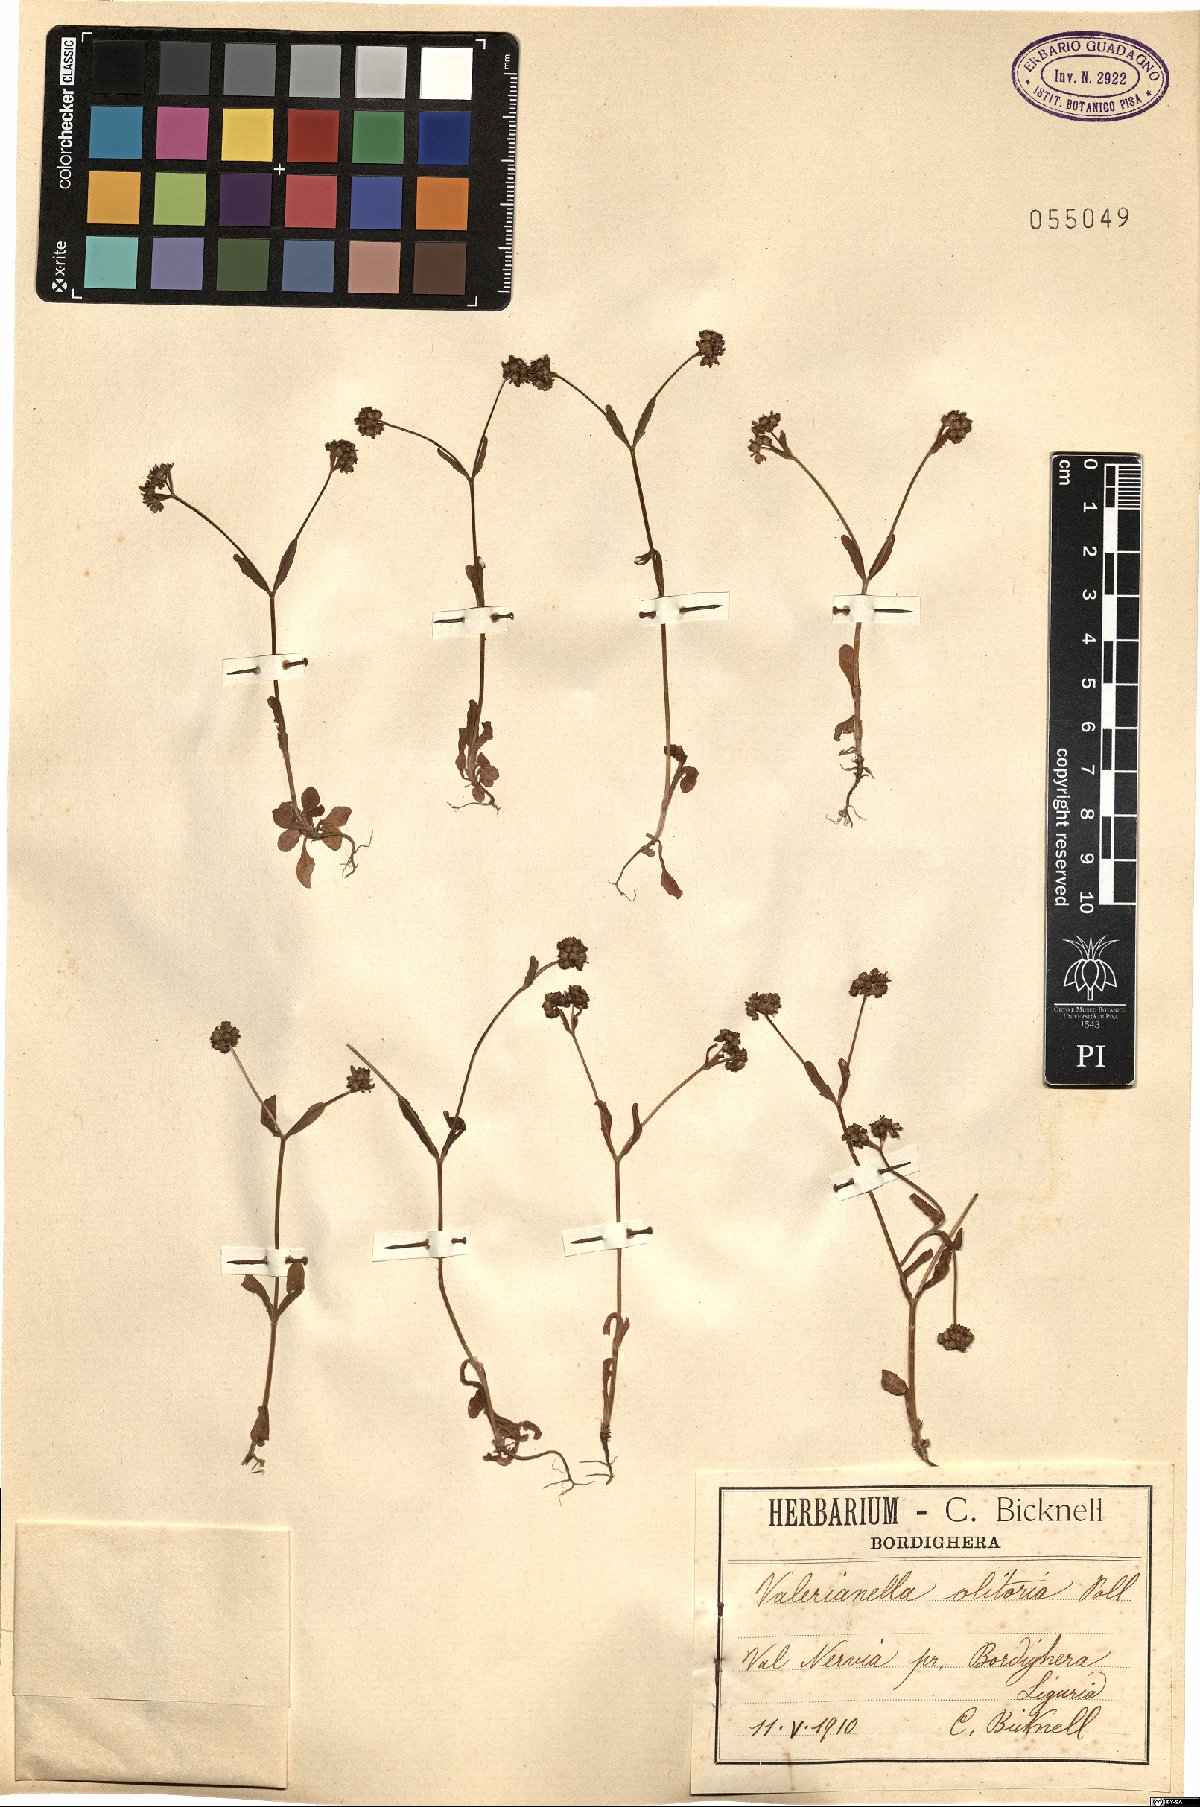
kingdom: Plantae
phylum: Tracheophyta
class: Magnoliopsida
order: Dipsacales
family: Caprifoliaceae
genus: Valerianella
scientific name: Valerianella locusta
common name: Common cornsalad
